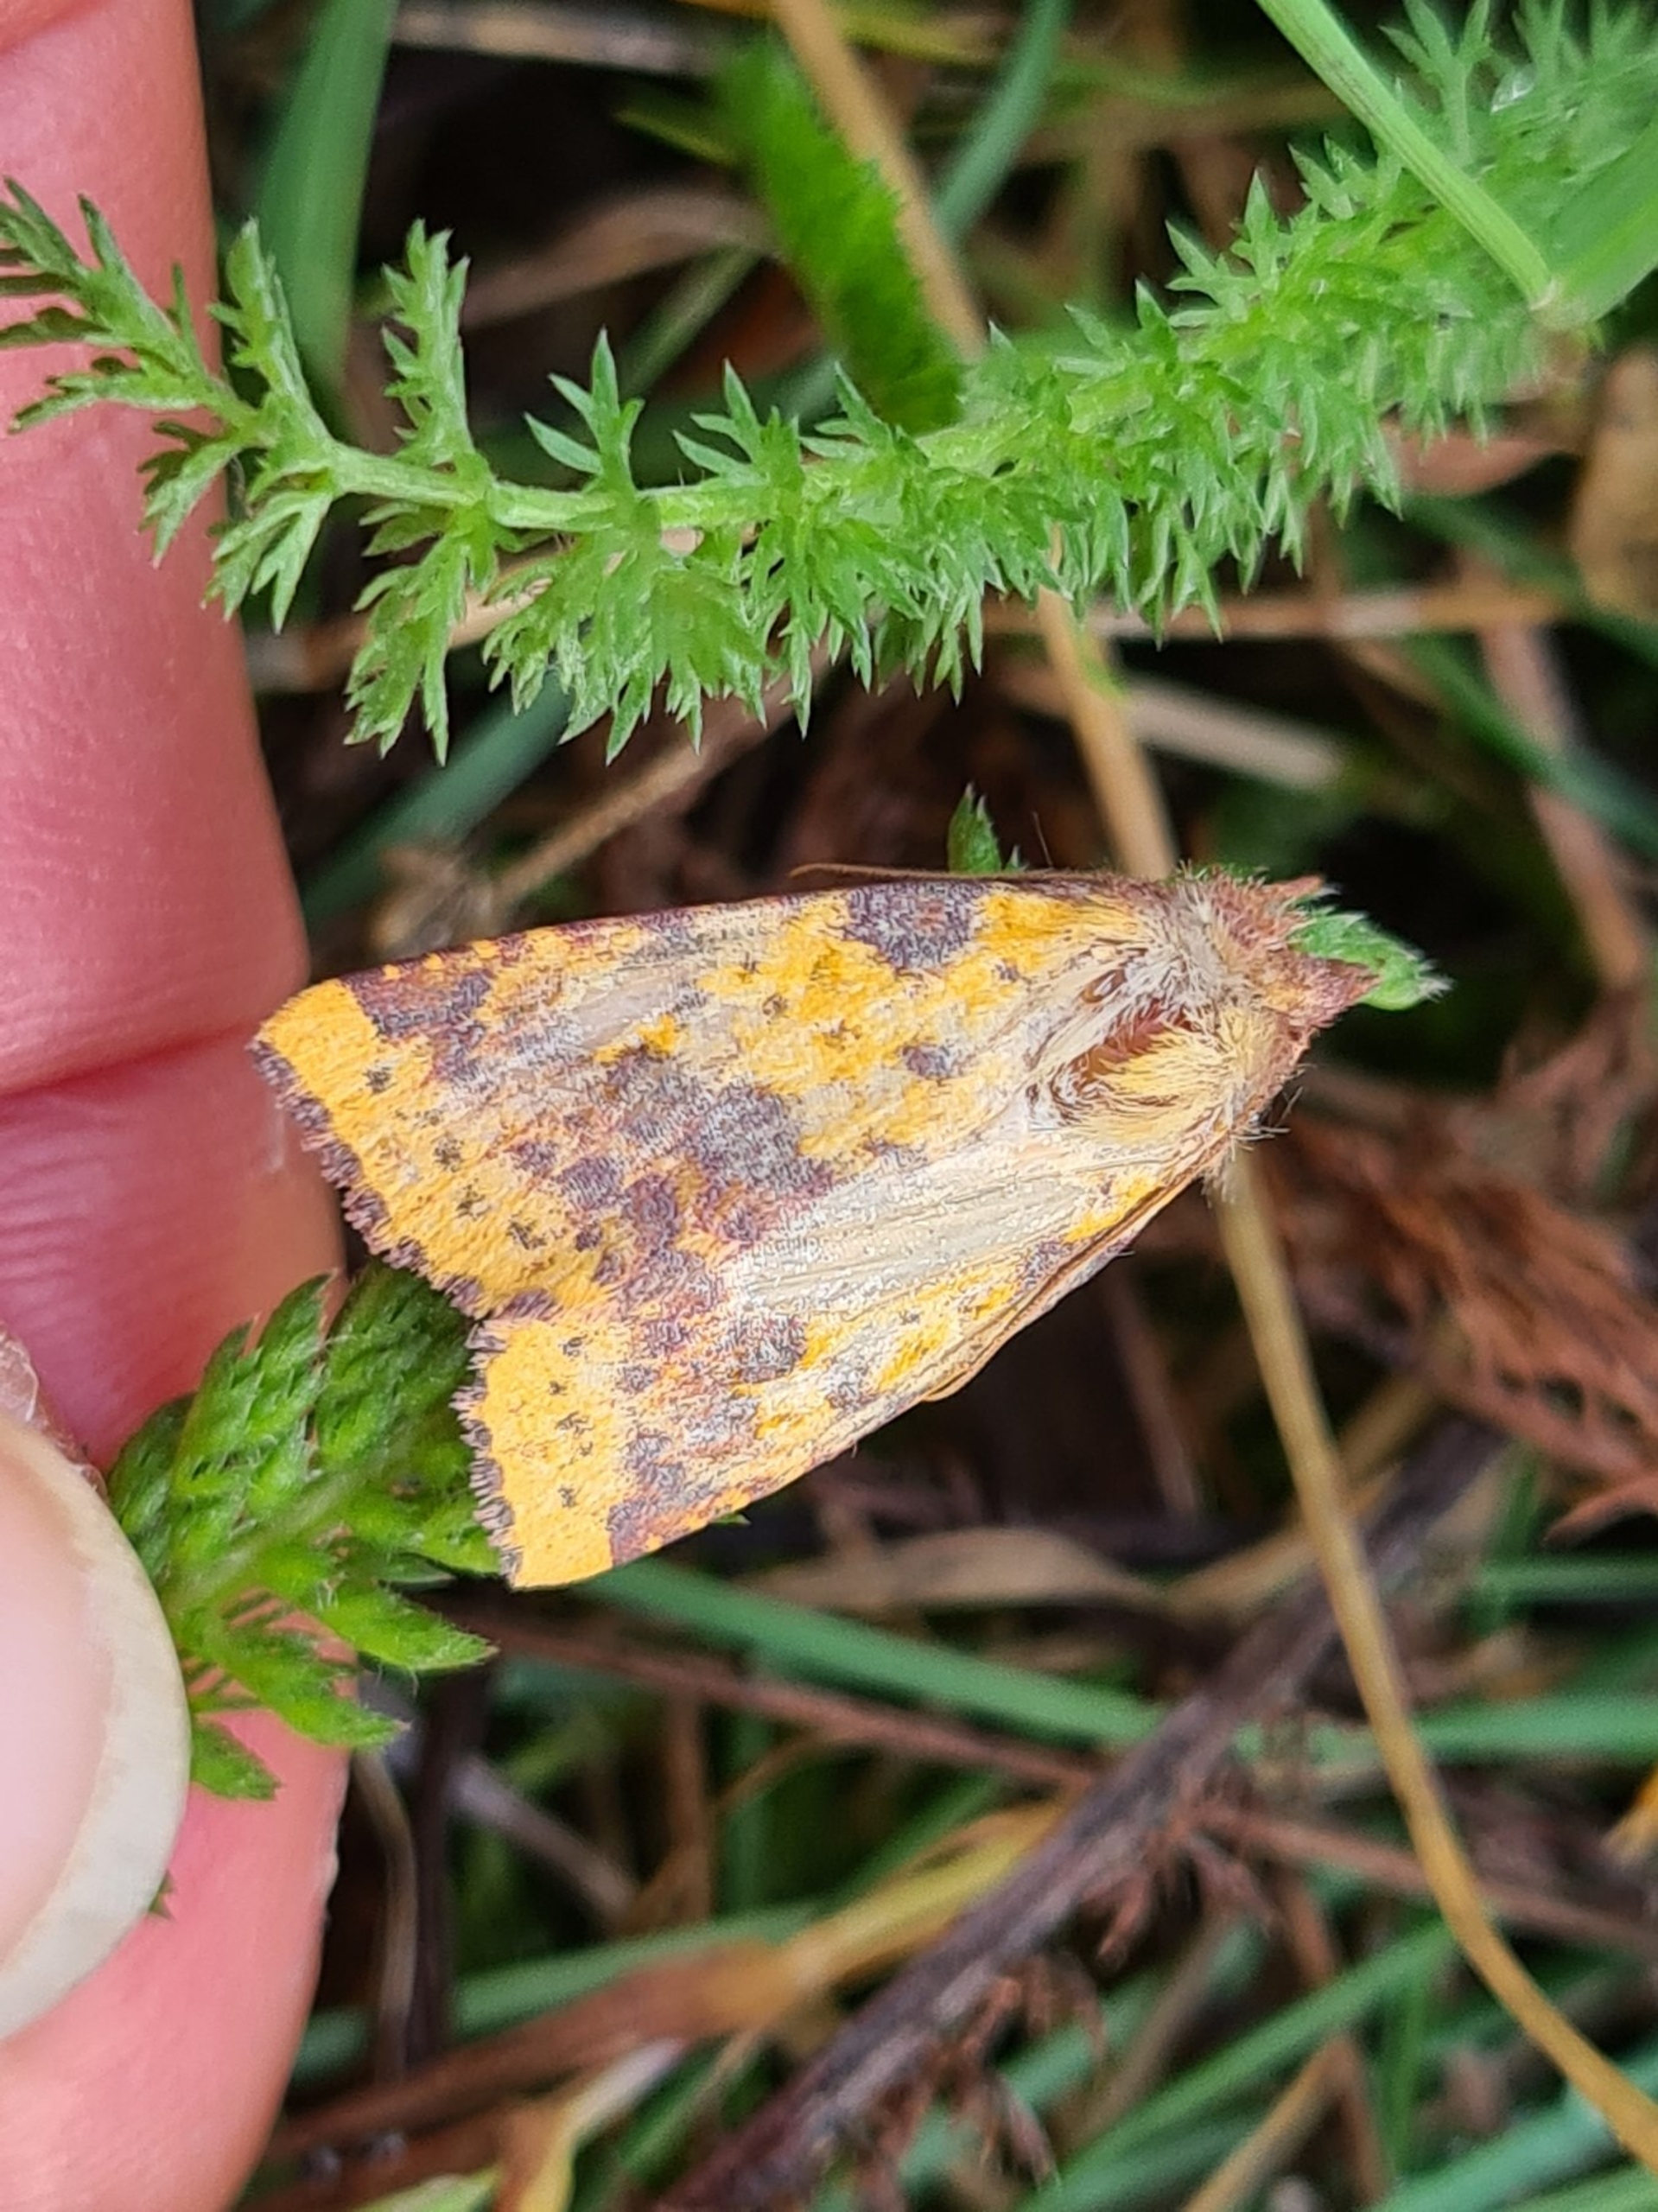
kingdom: Animalia
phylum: Arthropoda
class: Insecta
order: Lepidoptera
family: Noctuidae
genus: Xanthia
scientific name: Xanthia togata
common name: Toga-septemberugle
